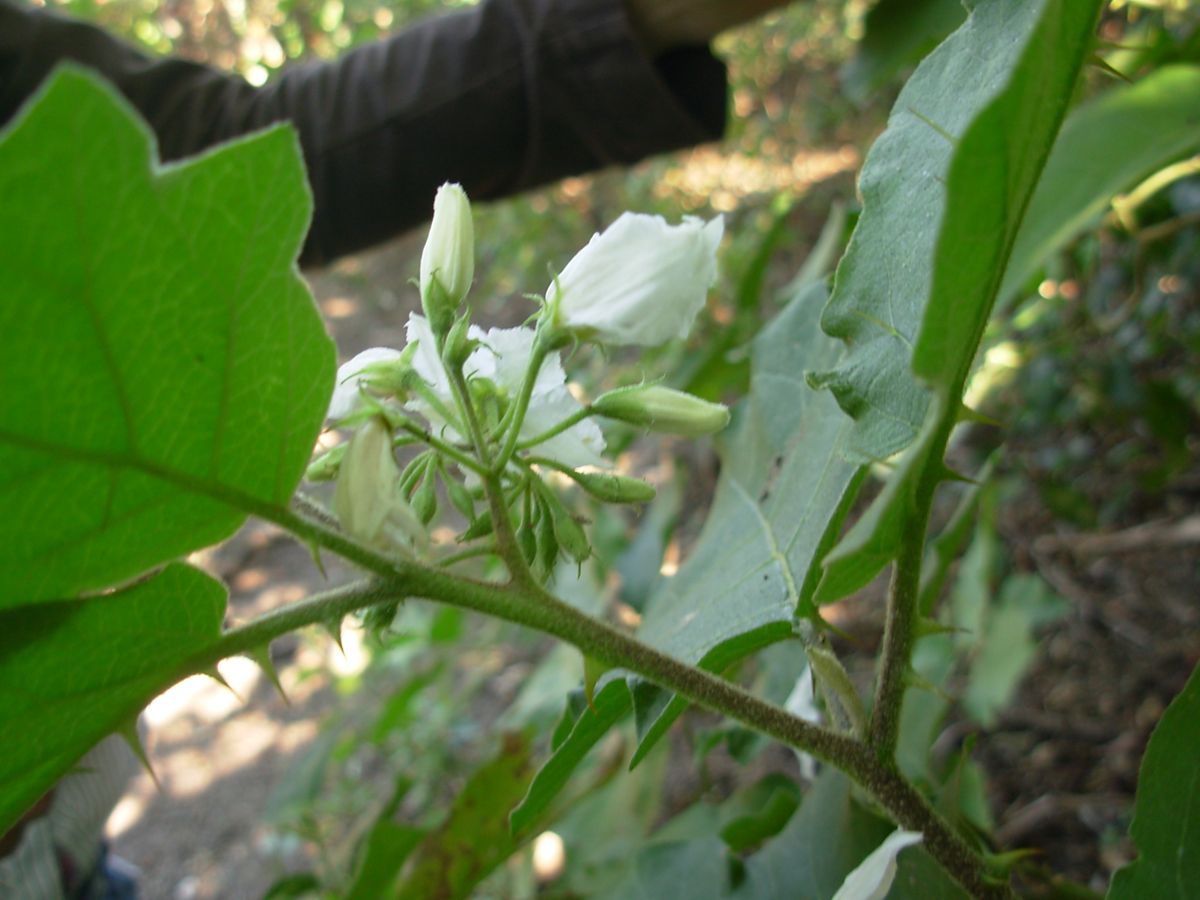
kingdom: Plantae
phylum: Tracheophyta
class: Magnoliopsida
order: Solanales
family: Solanaceae
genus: Solanum
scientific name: Solanum hirtum
